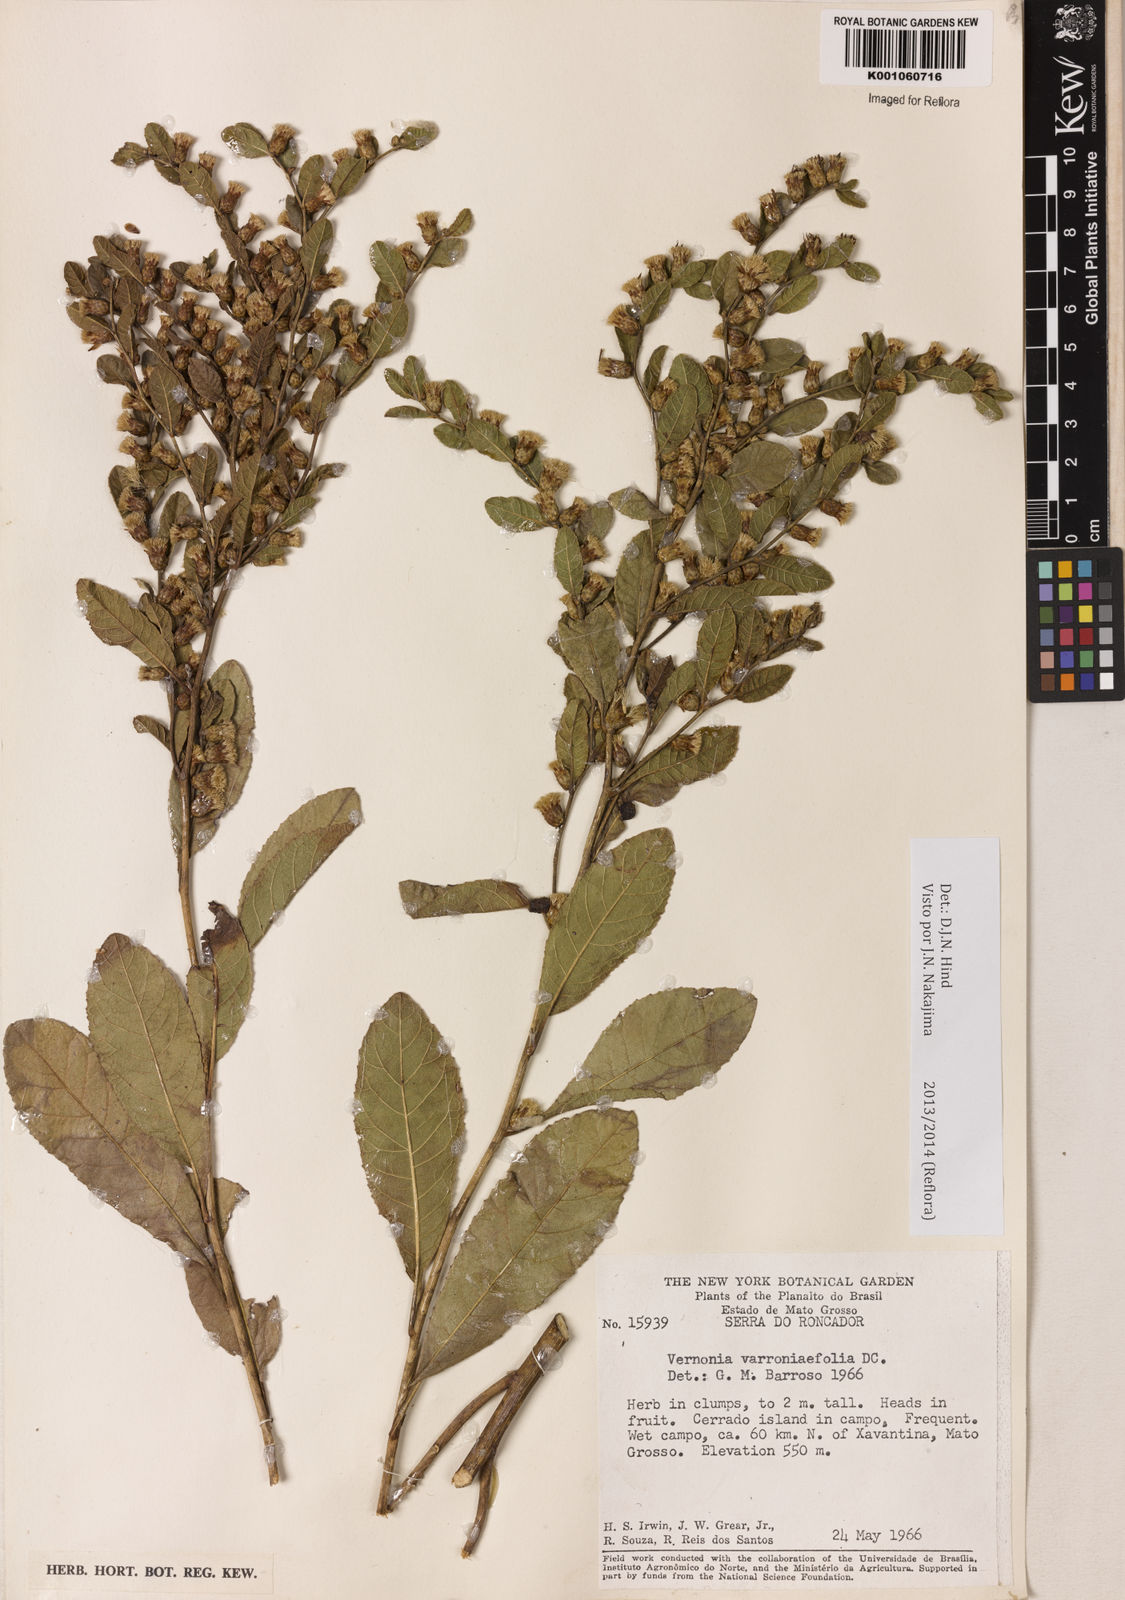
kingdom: Plantae
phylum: Tracheophyta
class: Magnoliopsida
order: Asterales
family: Asteraceae
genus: Lessingianthus
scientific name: Lessingianthus varroniifolius
